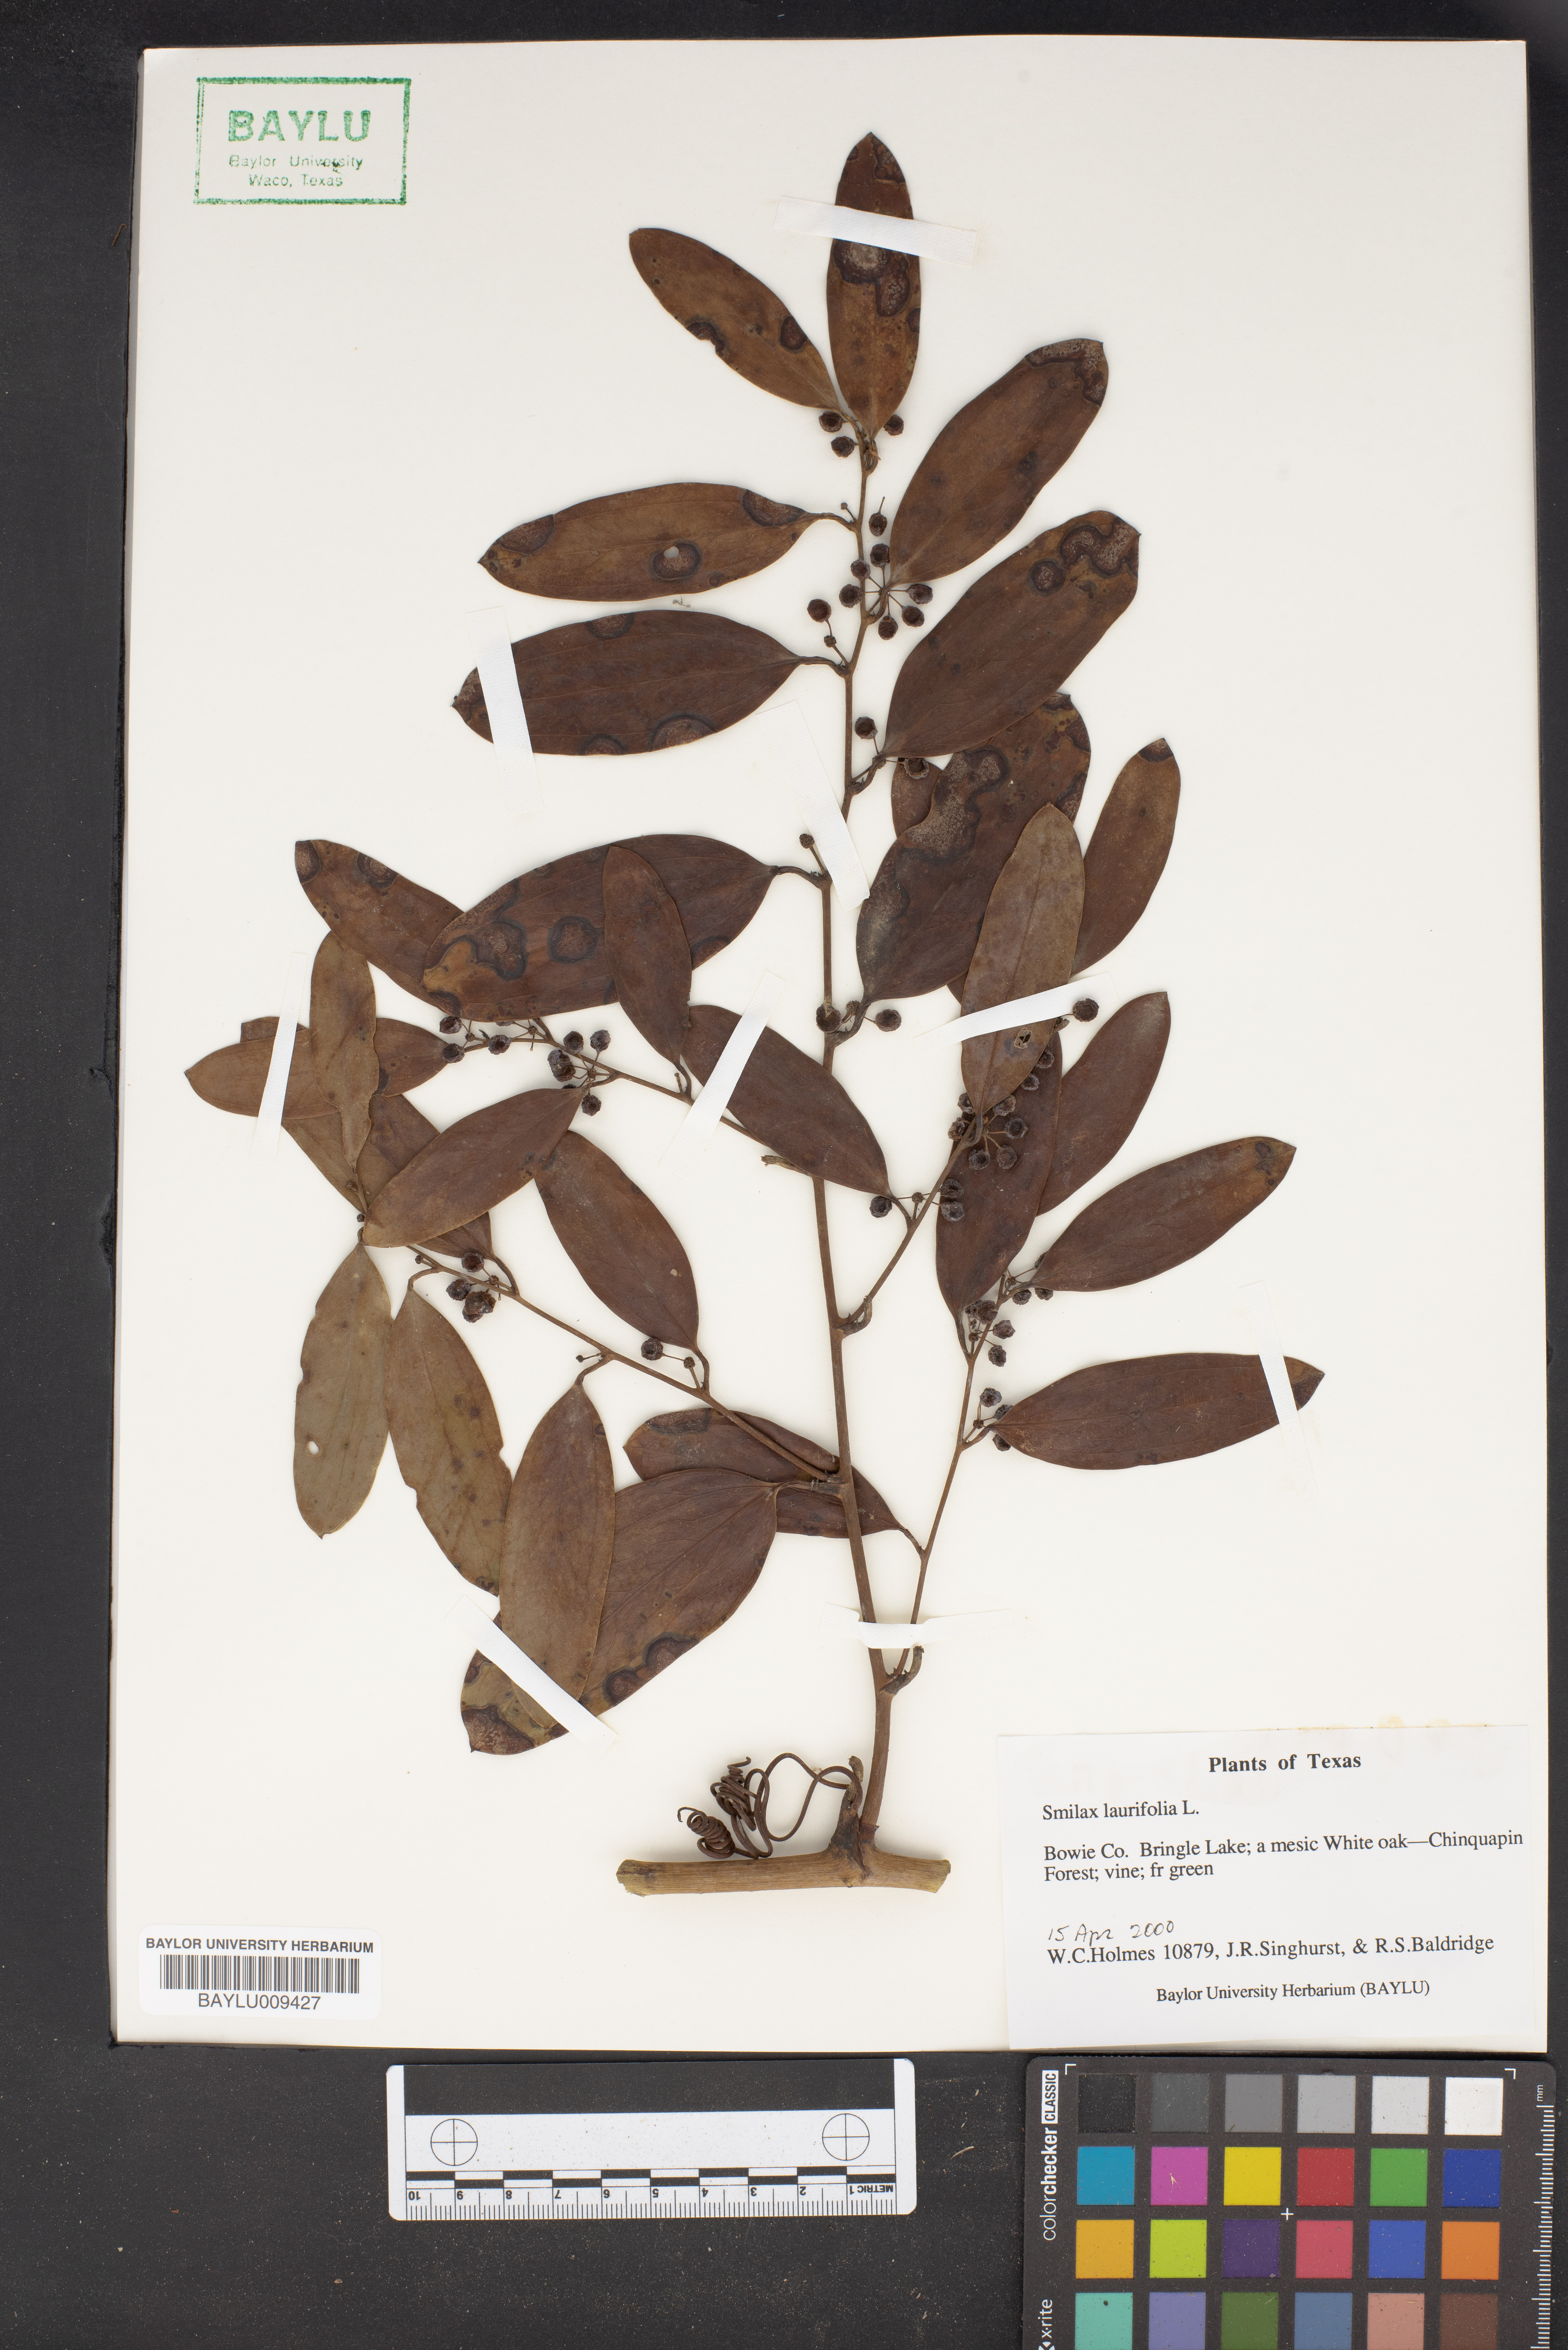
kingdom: Plantae
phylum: Tracheophyta
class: Liliopsida
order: Liliales
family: Smilacaceae
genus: Smilax
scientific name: Smilax laurifolia
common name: Bamboovine
